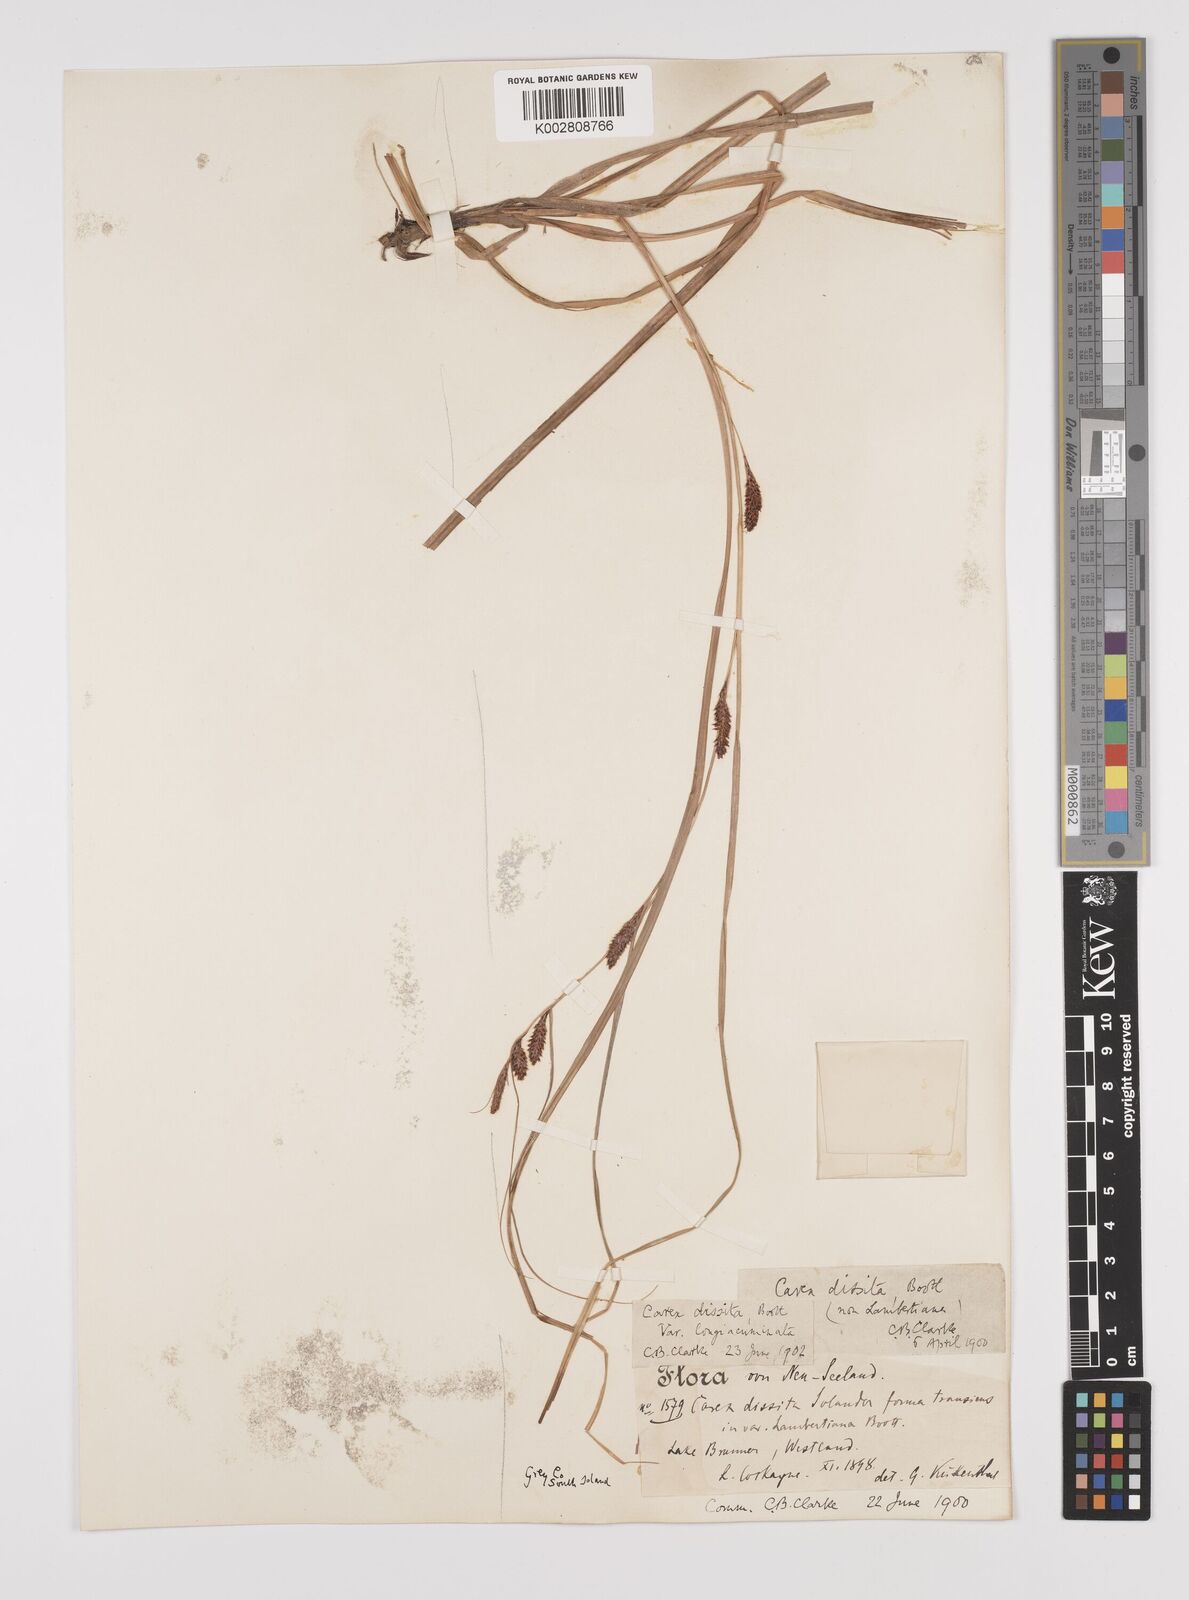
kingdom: Plantae
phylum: Tracheophyta
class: Liliopsida
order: Poales
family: Cyperaceae
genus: Carex
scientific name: Carex dissita
